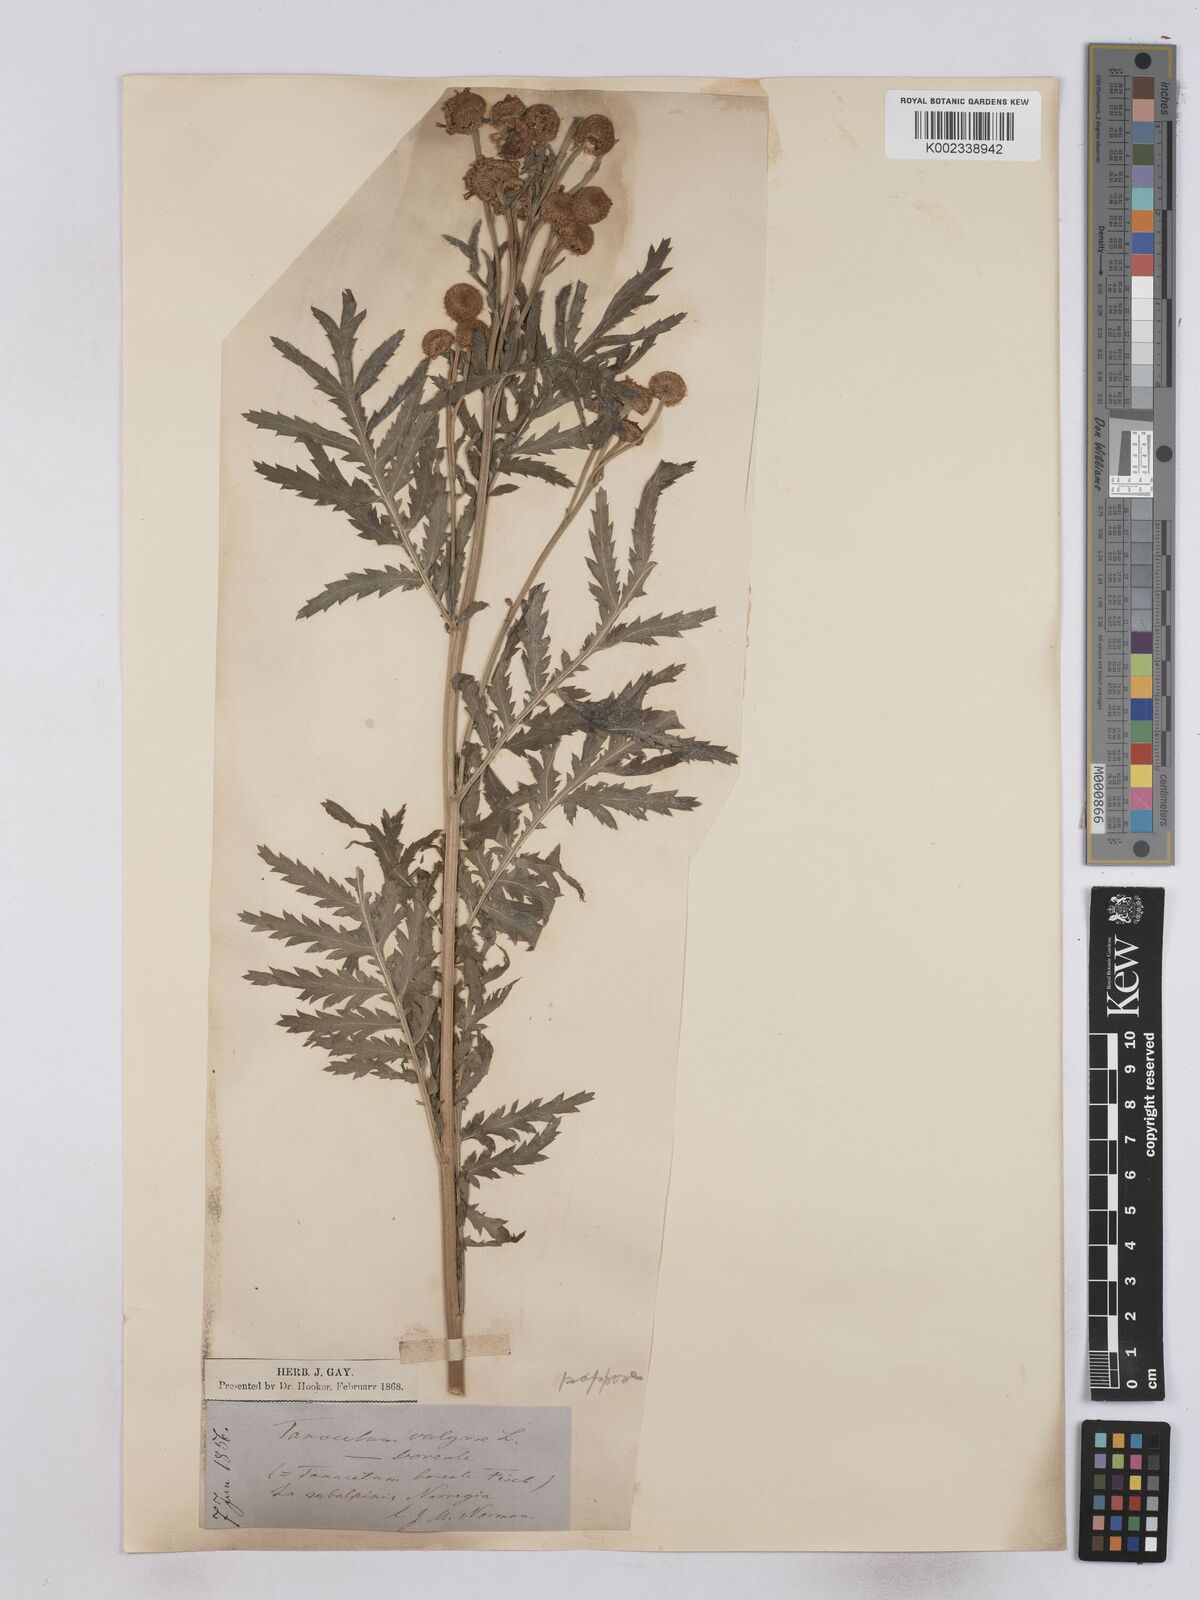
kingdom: Plantae
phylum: Tracheophyta
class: Magnoliopsida
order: Asterales
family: Asteraceae
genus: Tanacetum
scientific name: Tanacetum vulgare
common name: Common tansy
